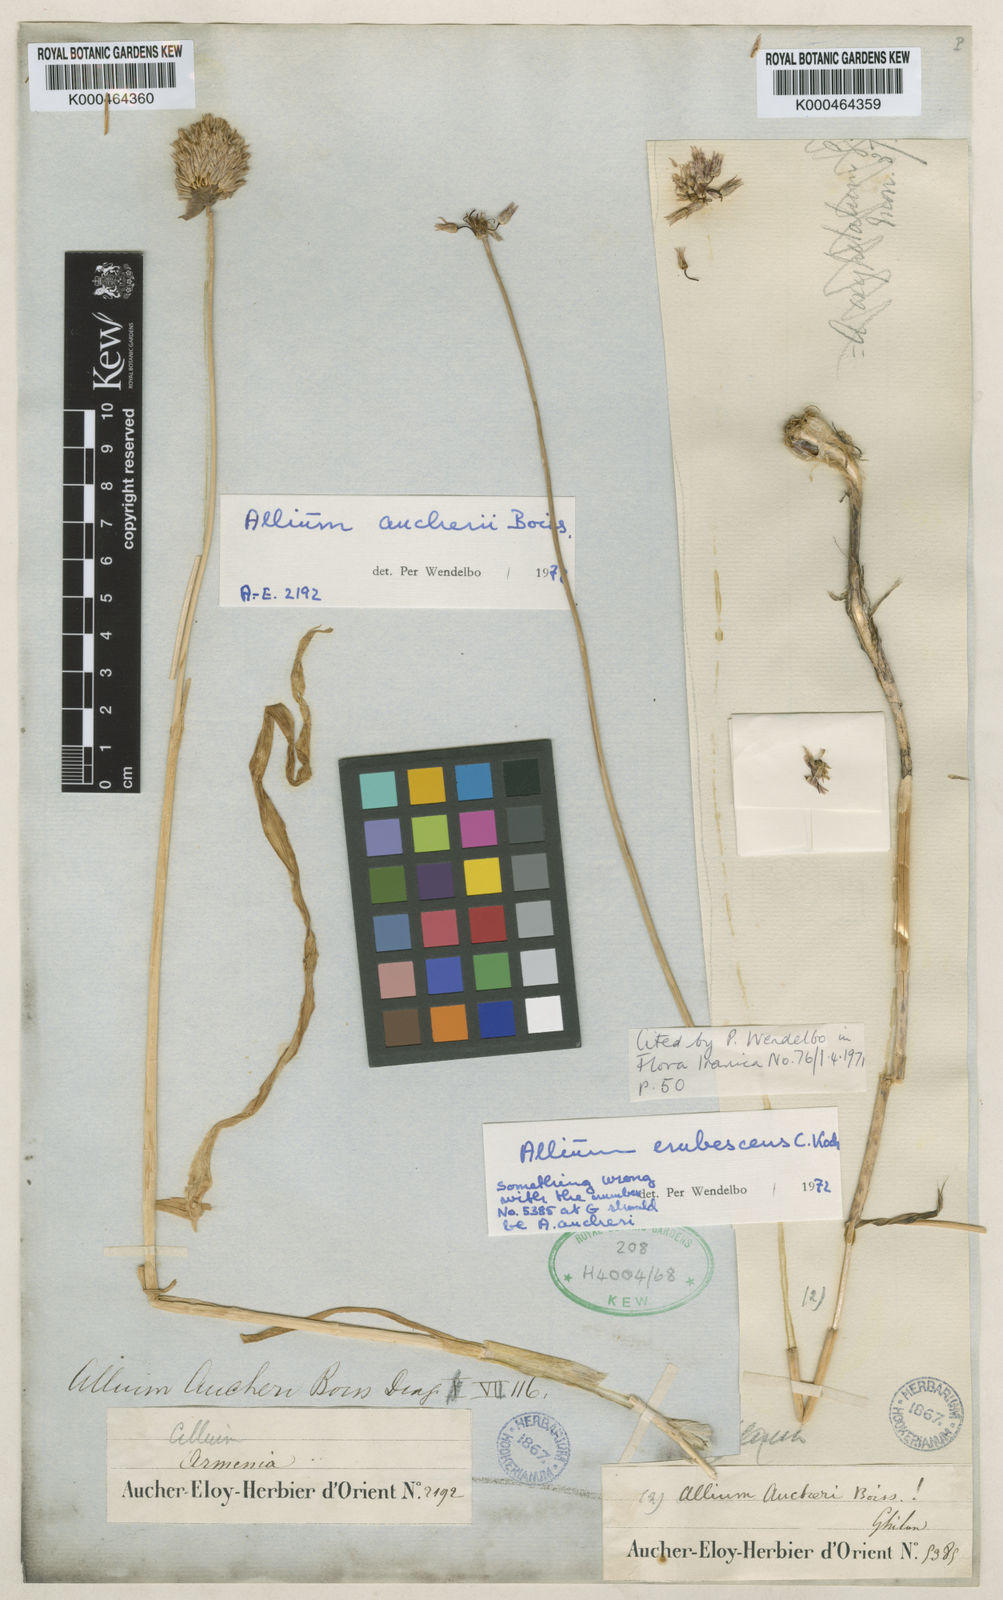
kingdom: Plantae
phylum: Tracheophyta
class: Liliopsida
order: Asparagales
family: Amaryllidaceae
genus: Allium
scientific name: Allium aucheri
